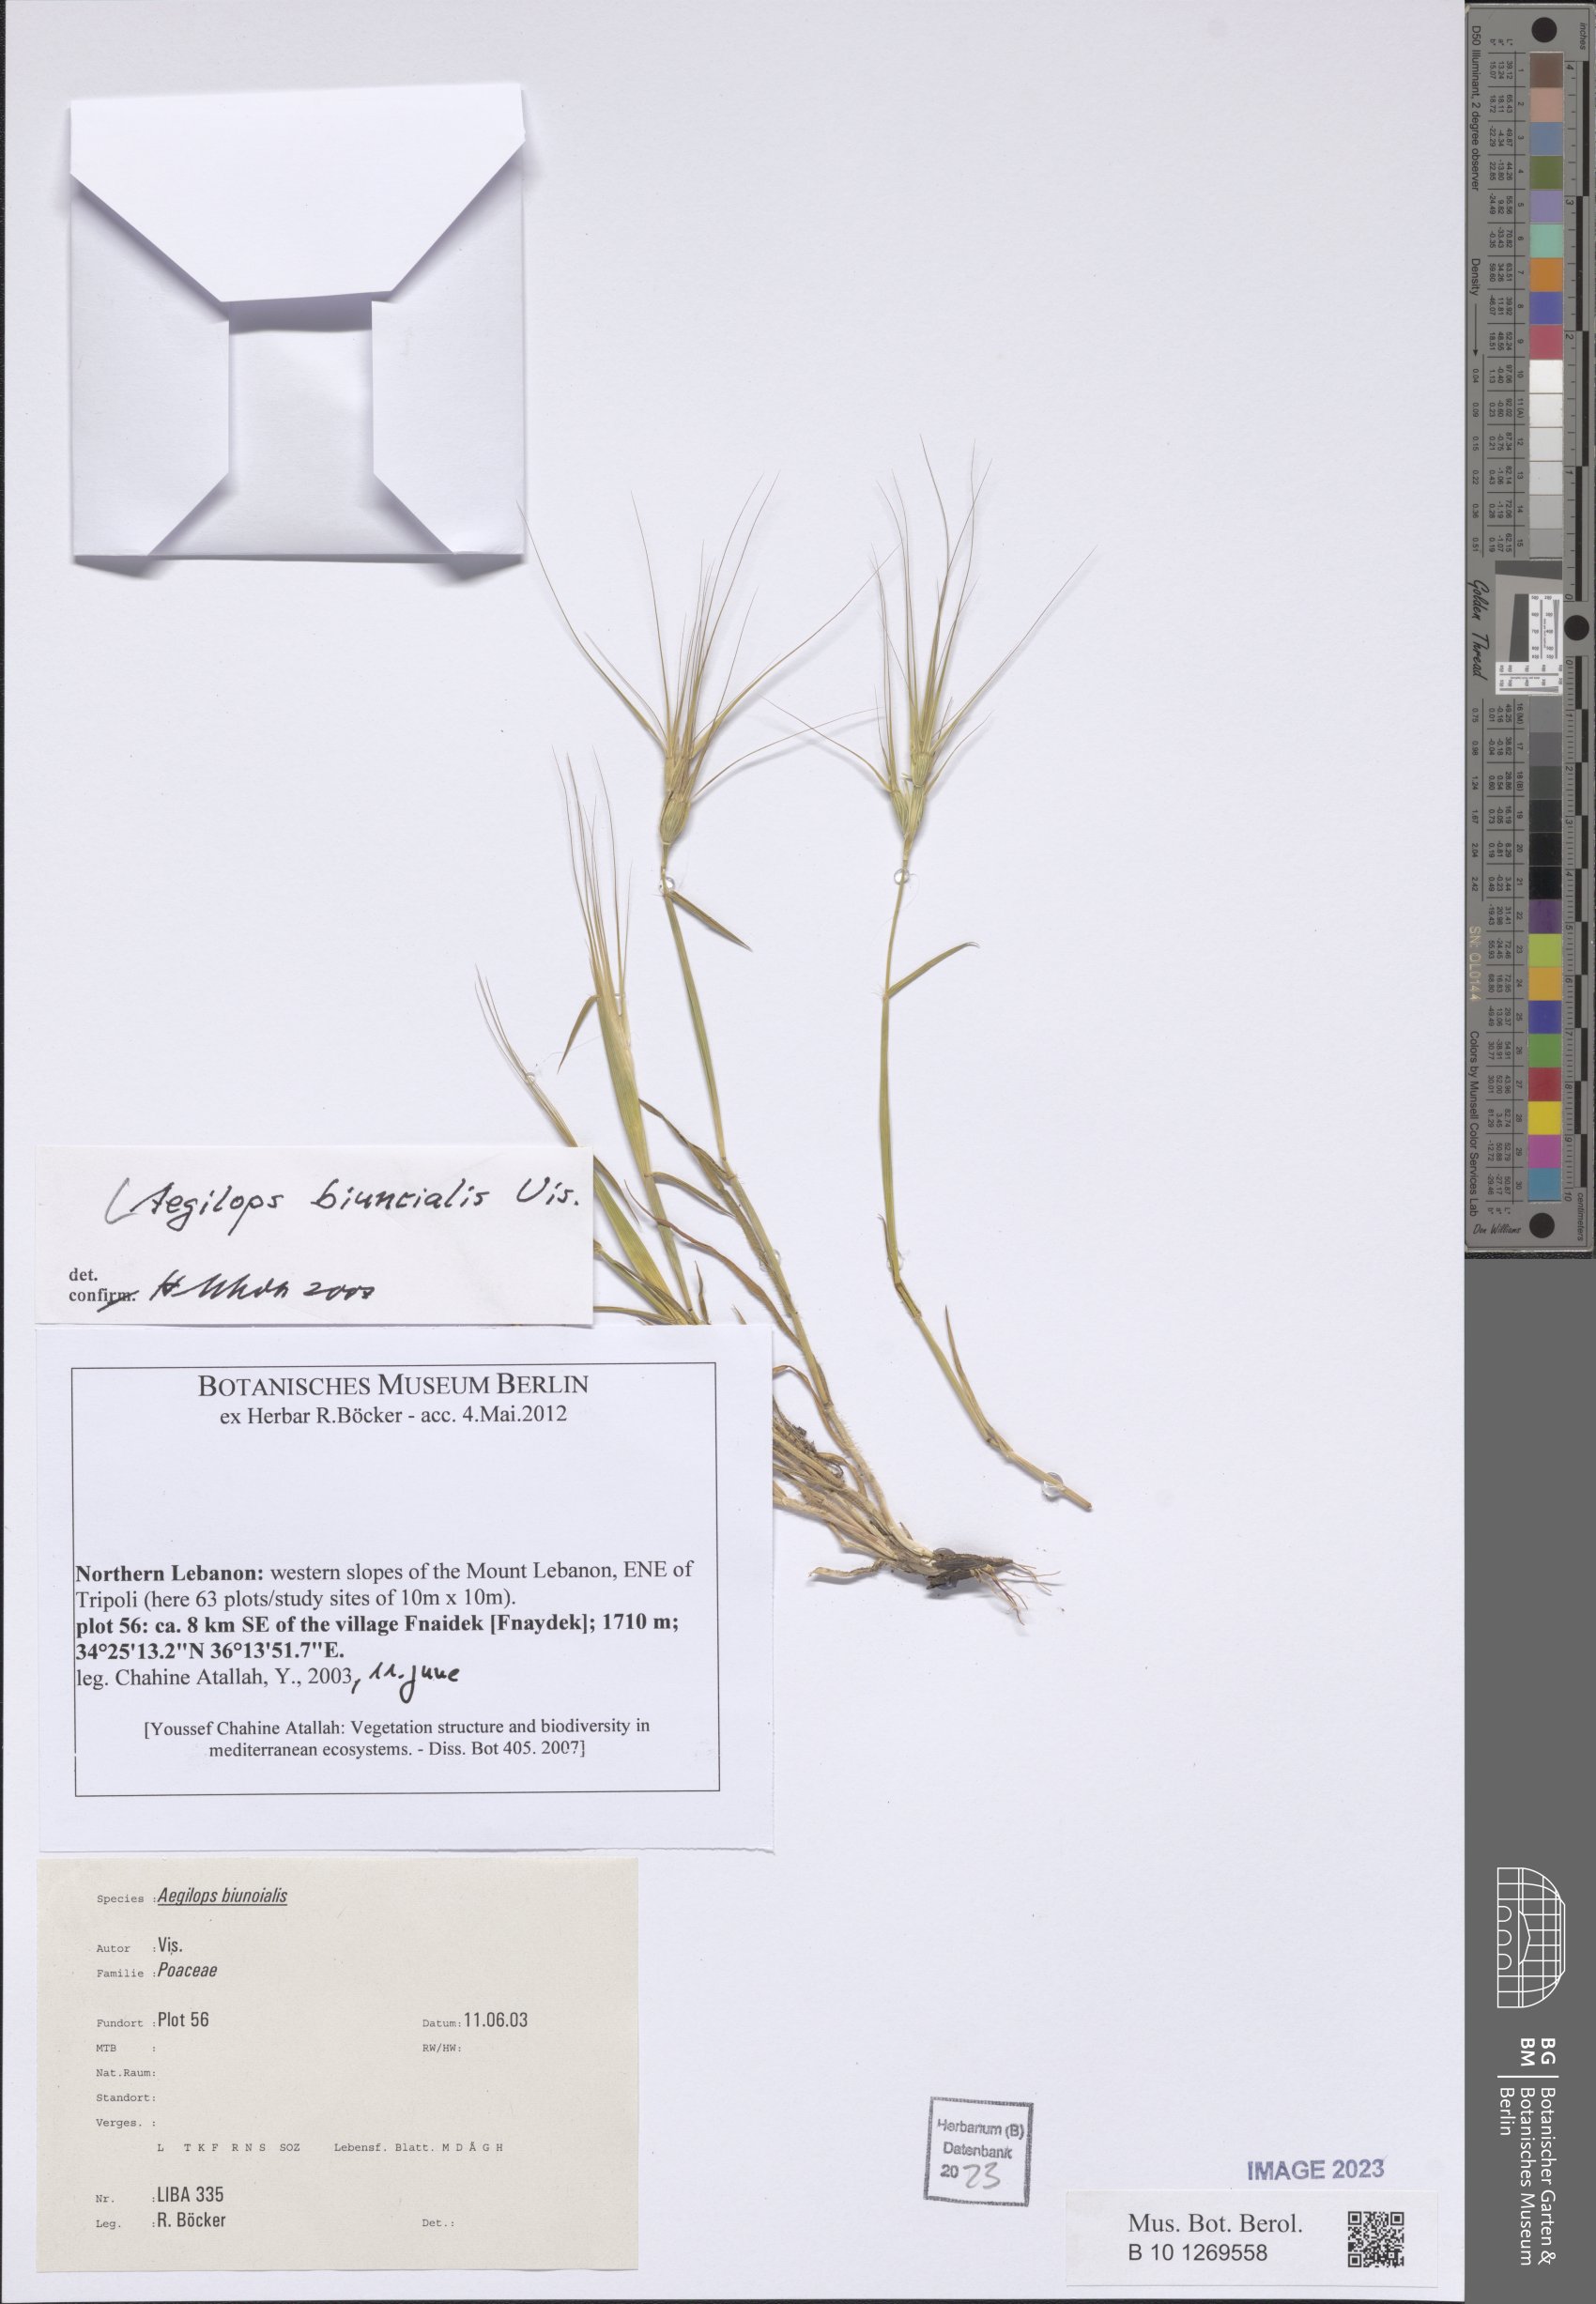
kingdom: Plantae
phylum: Tracheophyta
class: Liliopsida
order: Poales
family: Poaceae
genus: Aegilops
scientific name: Aegilops biuncialis
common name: Mediterranean aegilops
